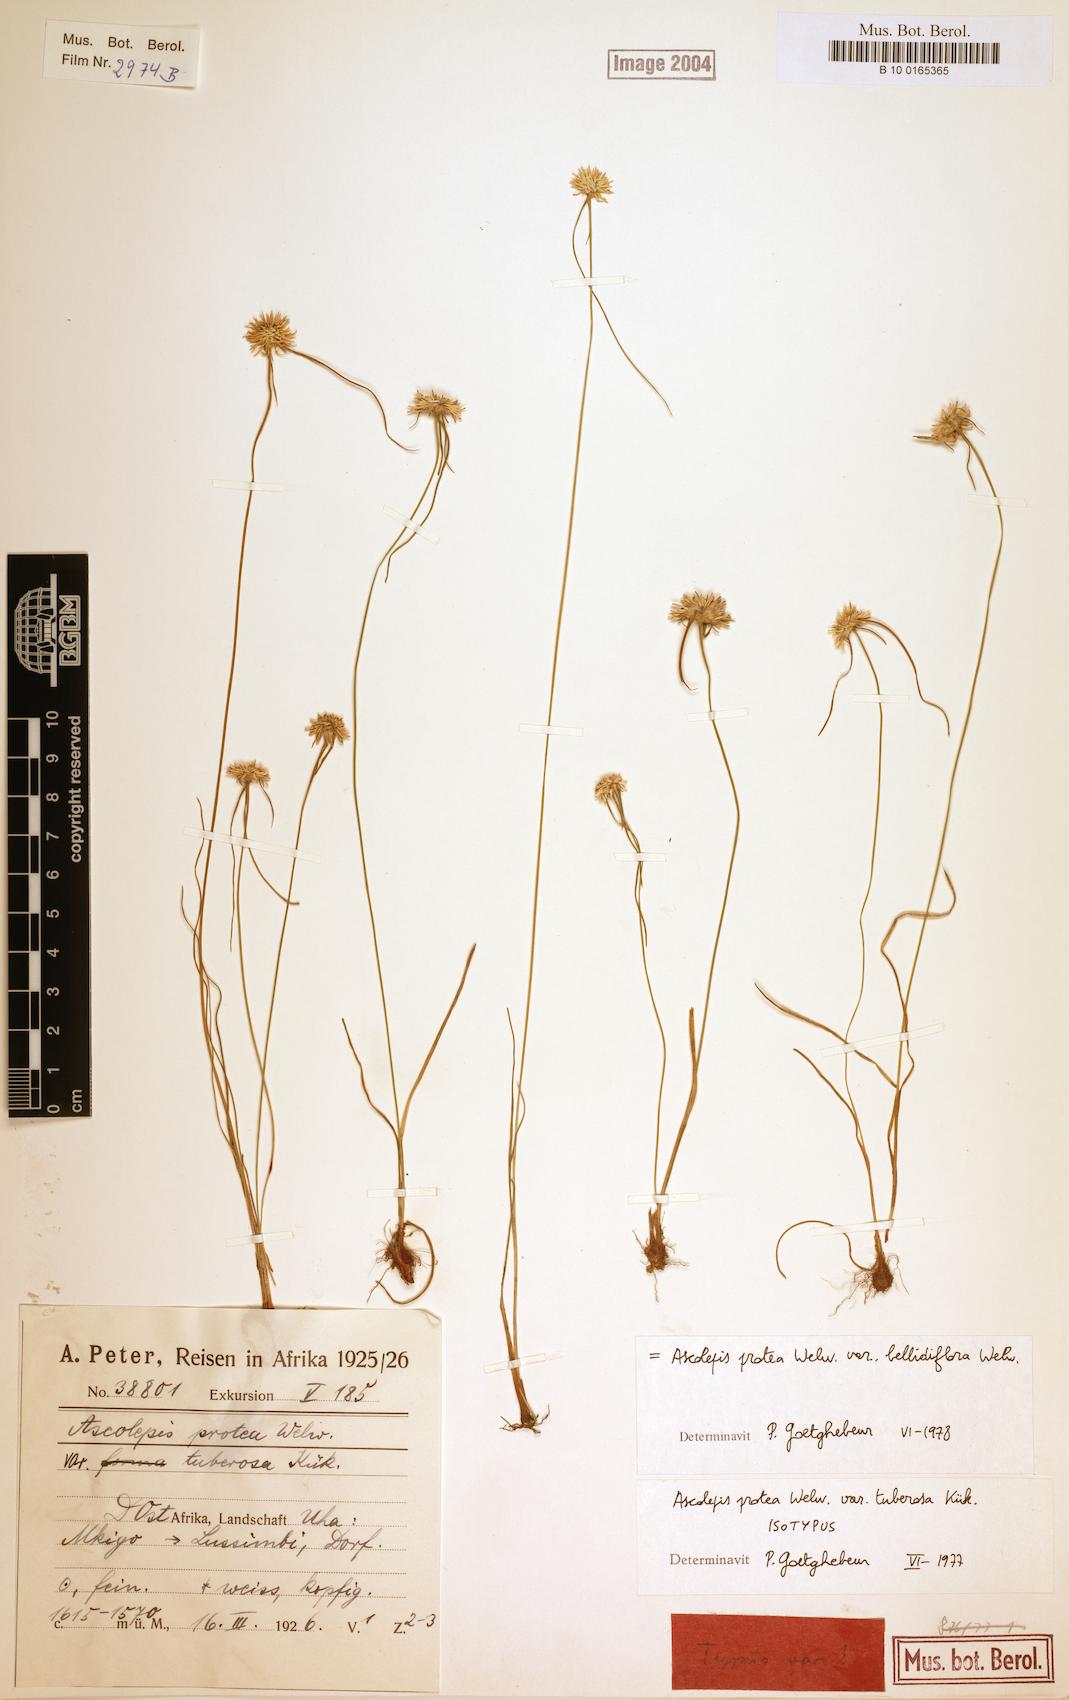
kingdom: Plantae
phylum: Tracheophyta
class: Liliopsida
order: Poales
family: Cyperaceae
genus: Cyperus
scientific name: Cyperus proteus
